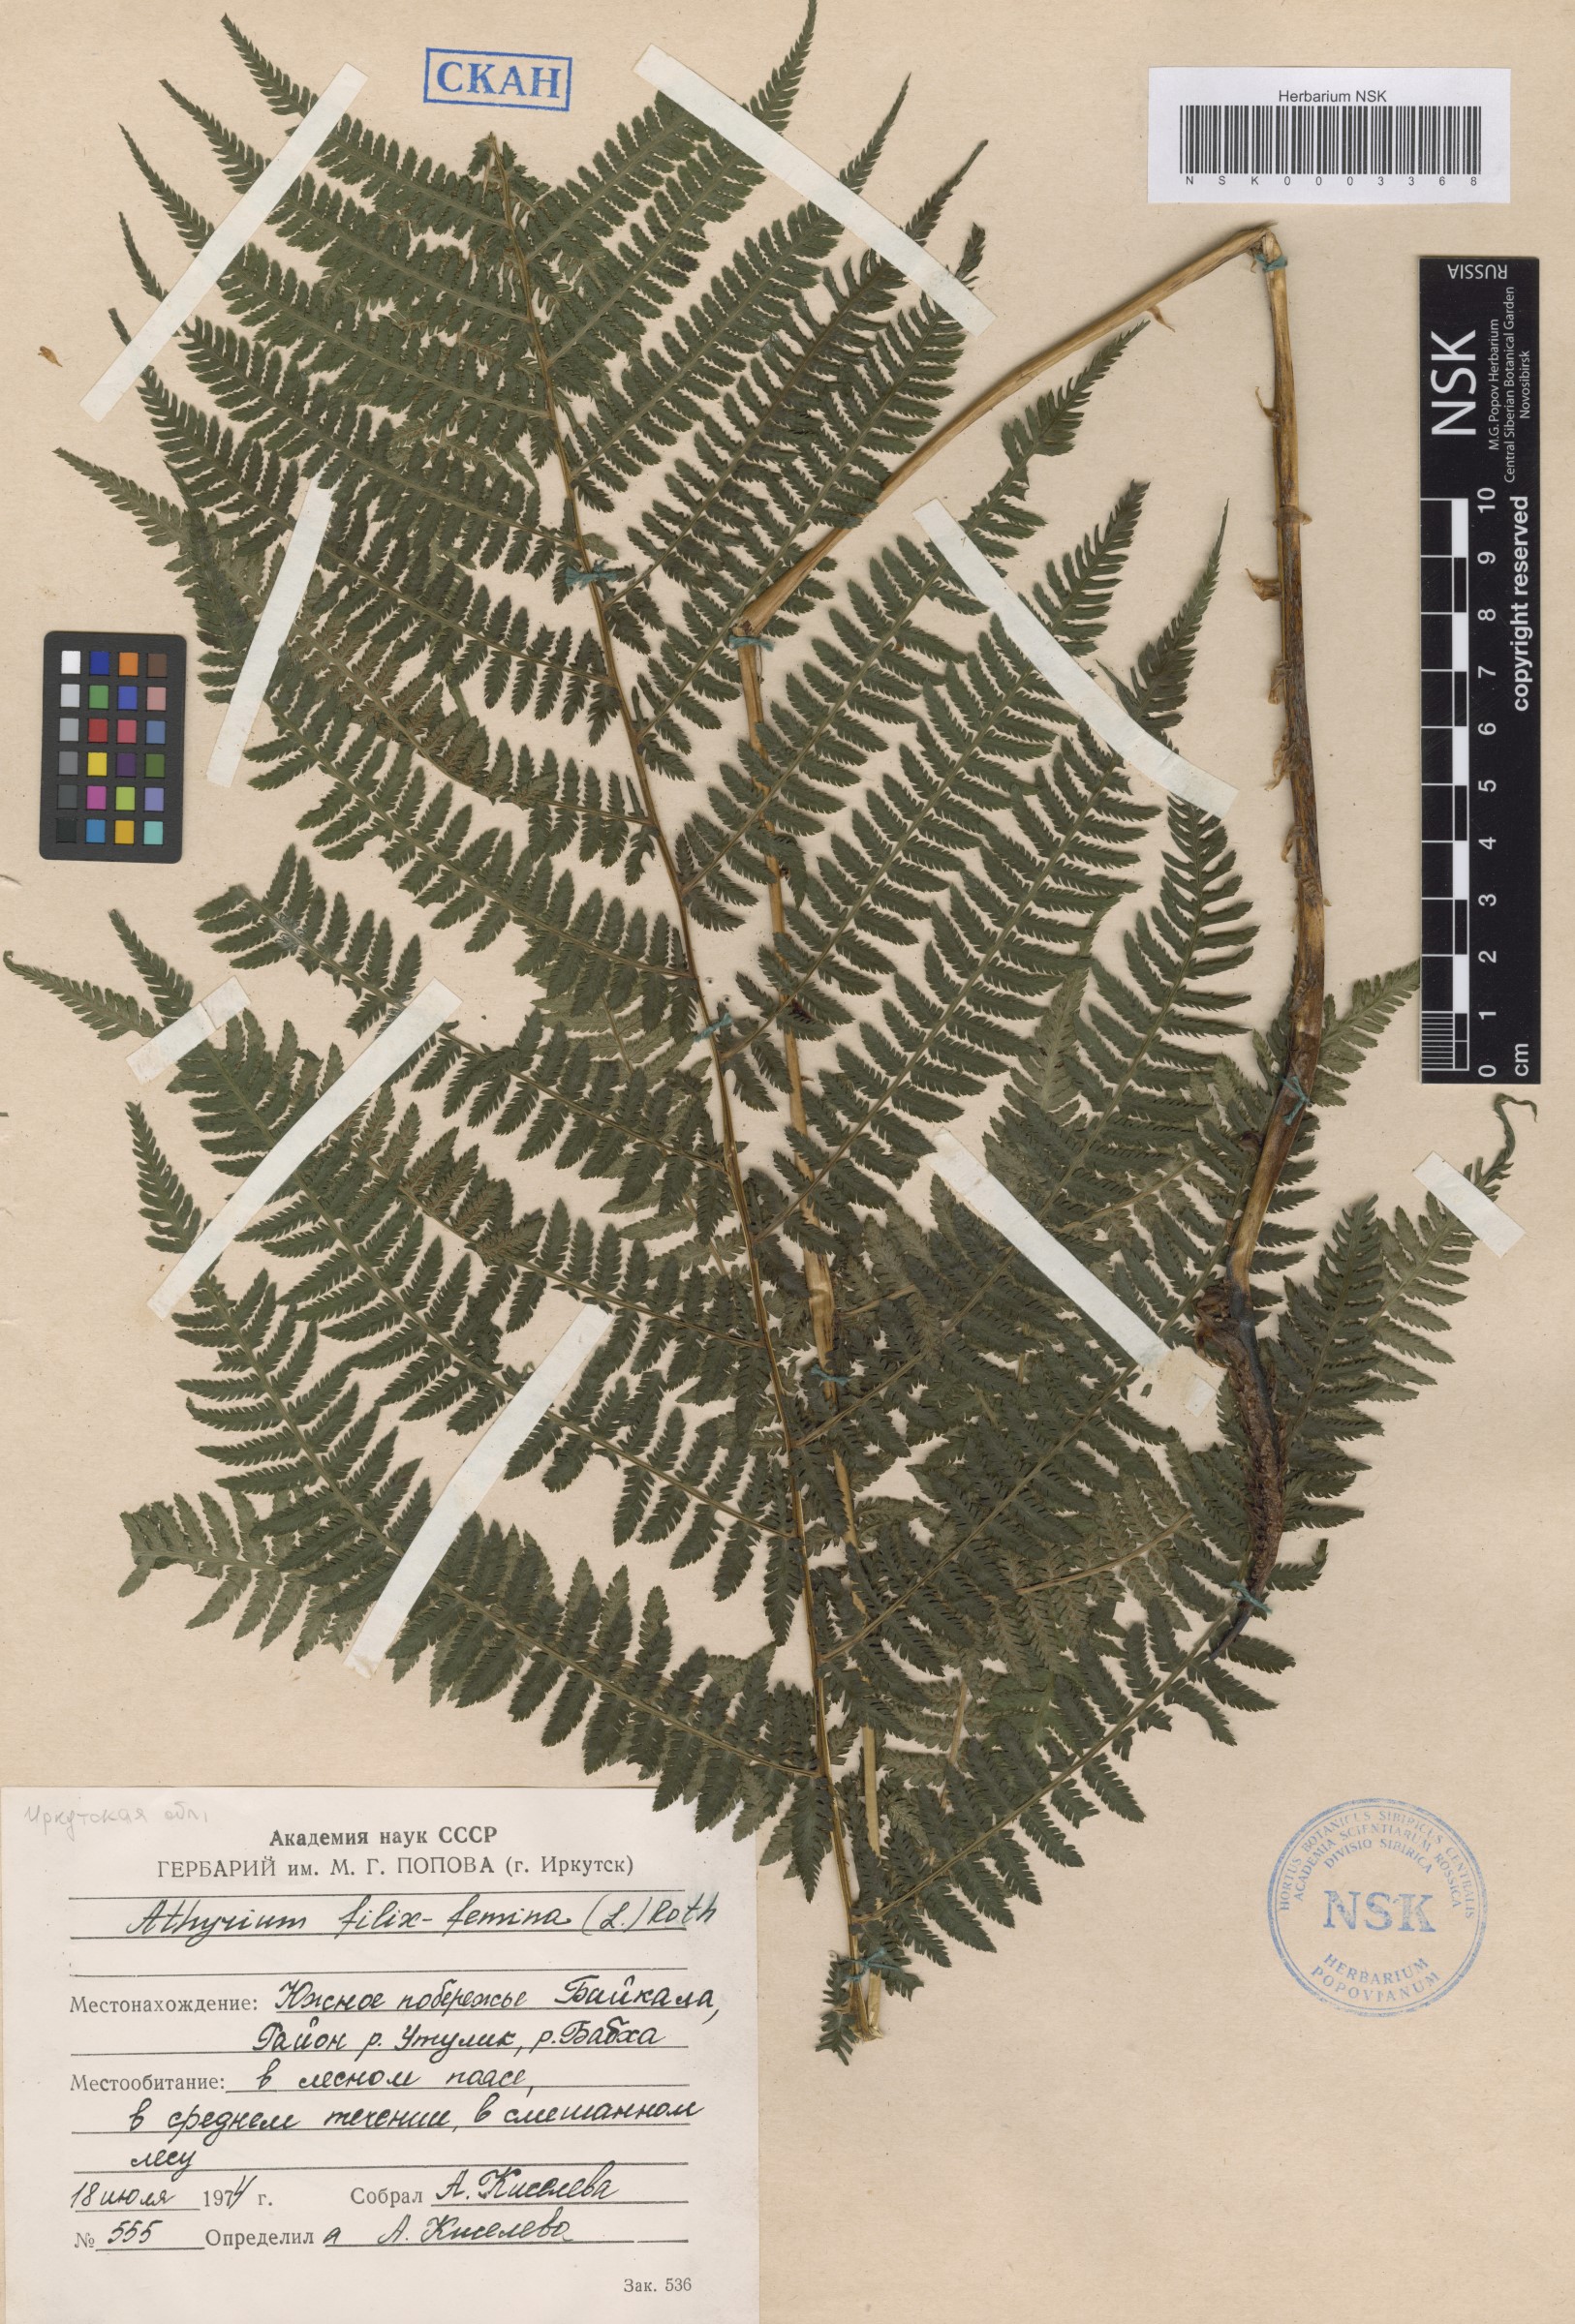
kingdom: Plantae
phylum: Tracheophyta
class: Polypodiopsida
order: Polypodiales
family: Athyriaceae
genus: Athyrium
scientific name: Athyrium filix-femina
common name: Lady fern
